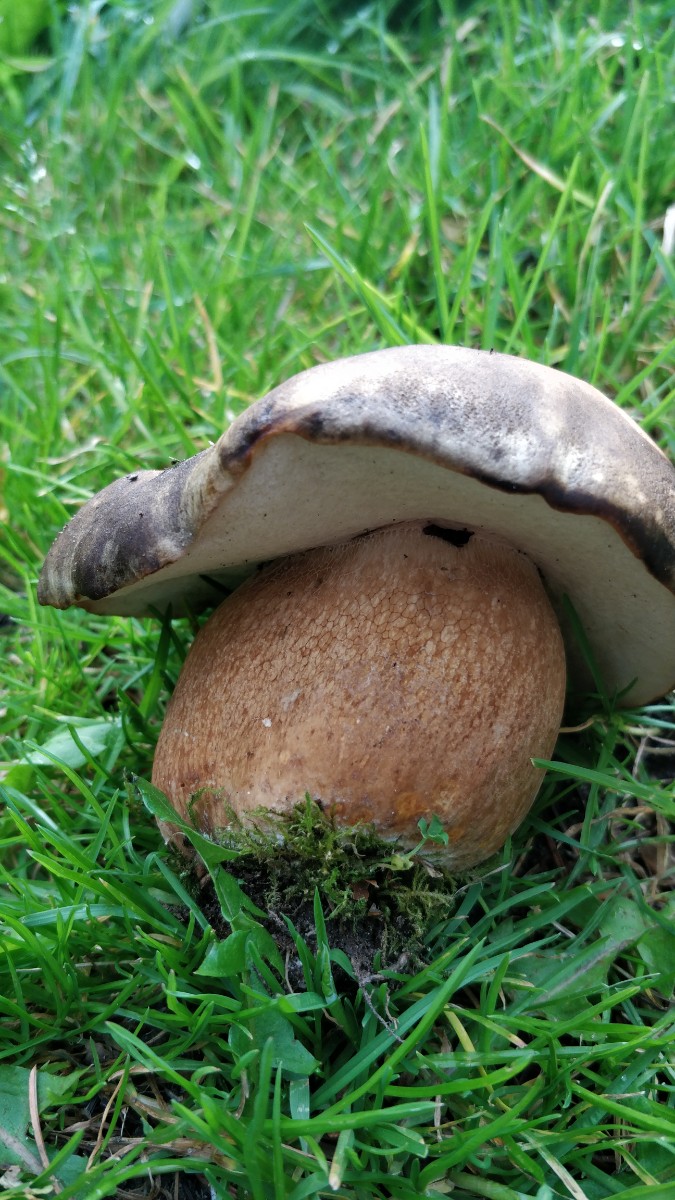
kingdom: Fungi
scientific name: Fungi
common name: bronze-rørhat
